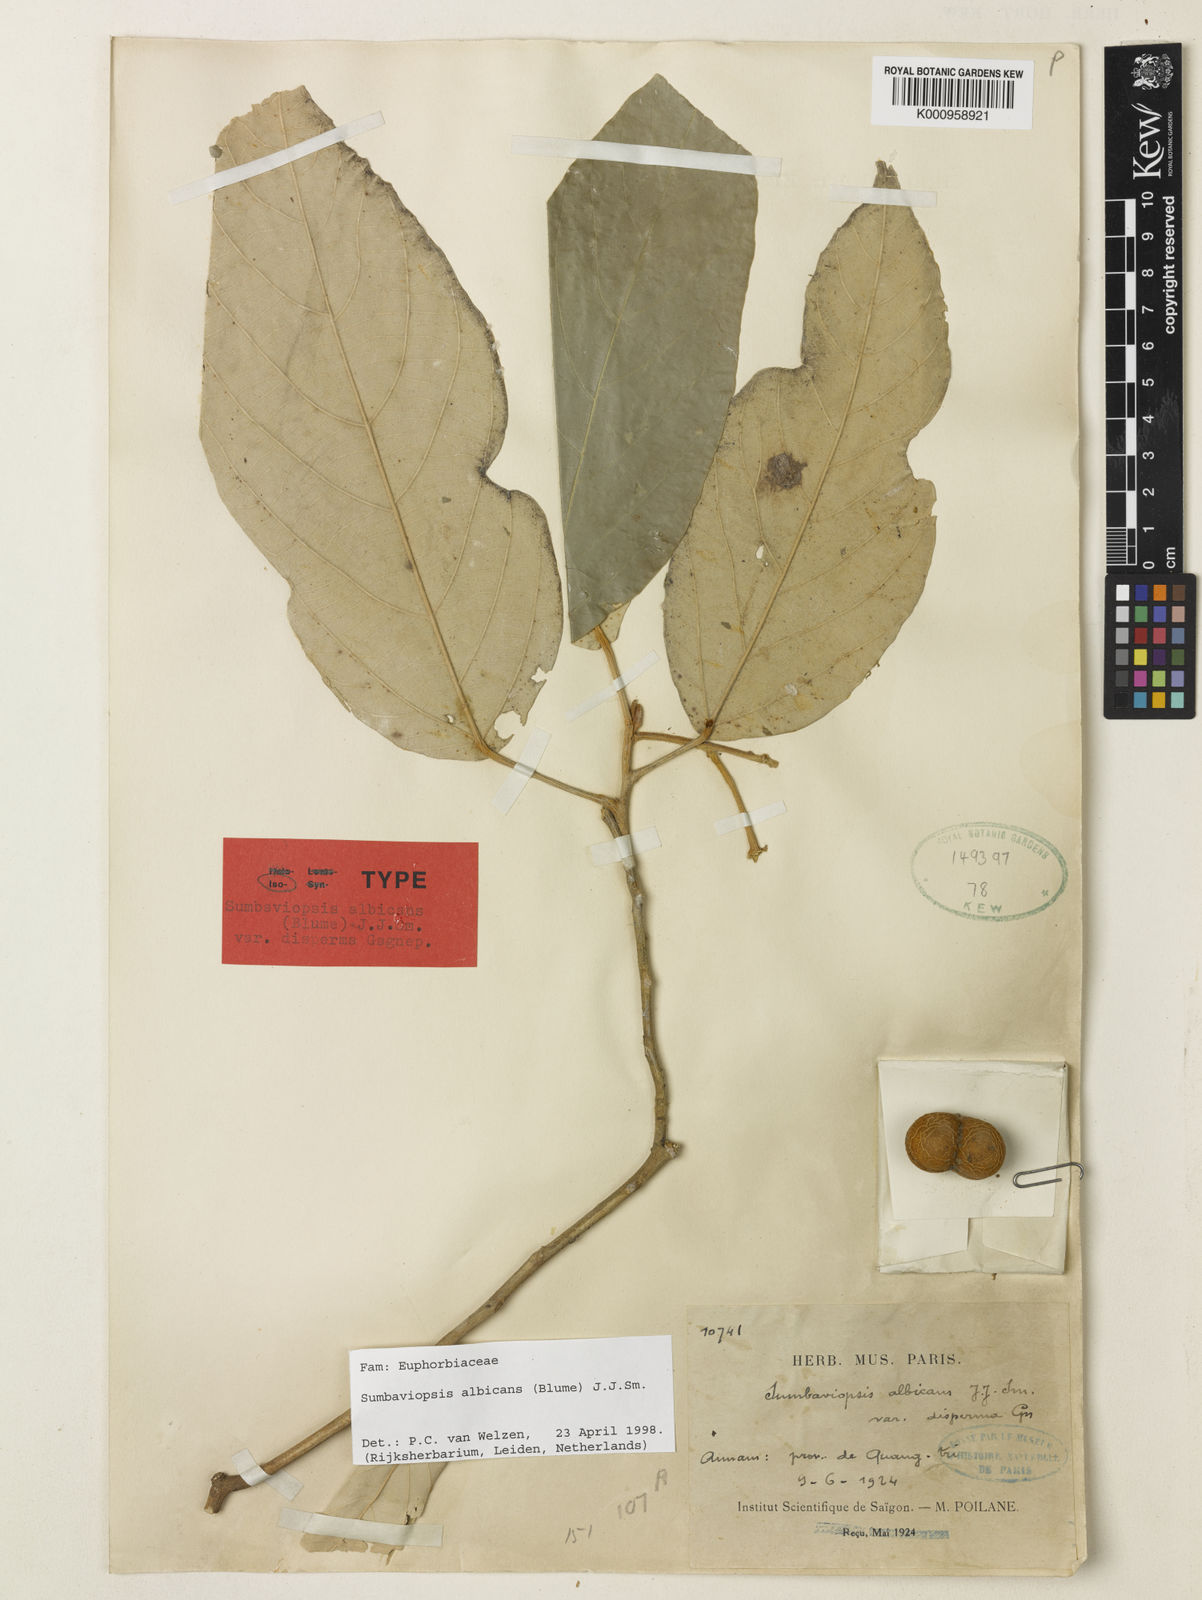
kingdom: Plantae
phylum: Tracheophyta
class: Magnoliopsida
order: Malpighiales
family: Euphorbiaceae
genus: Sumbaviopsis
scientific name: Sumbaviopsis albicans
